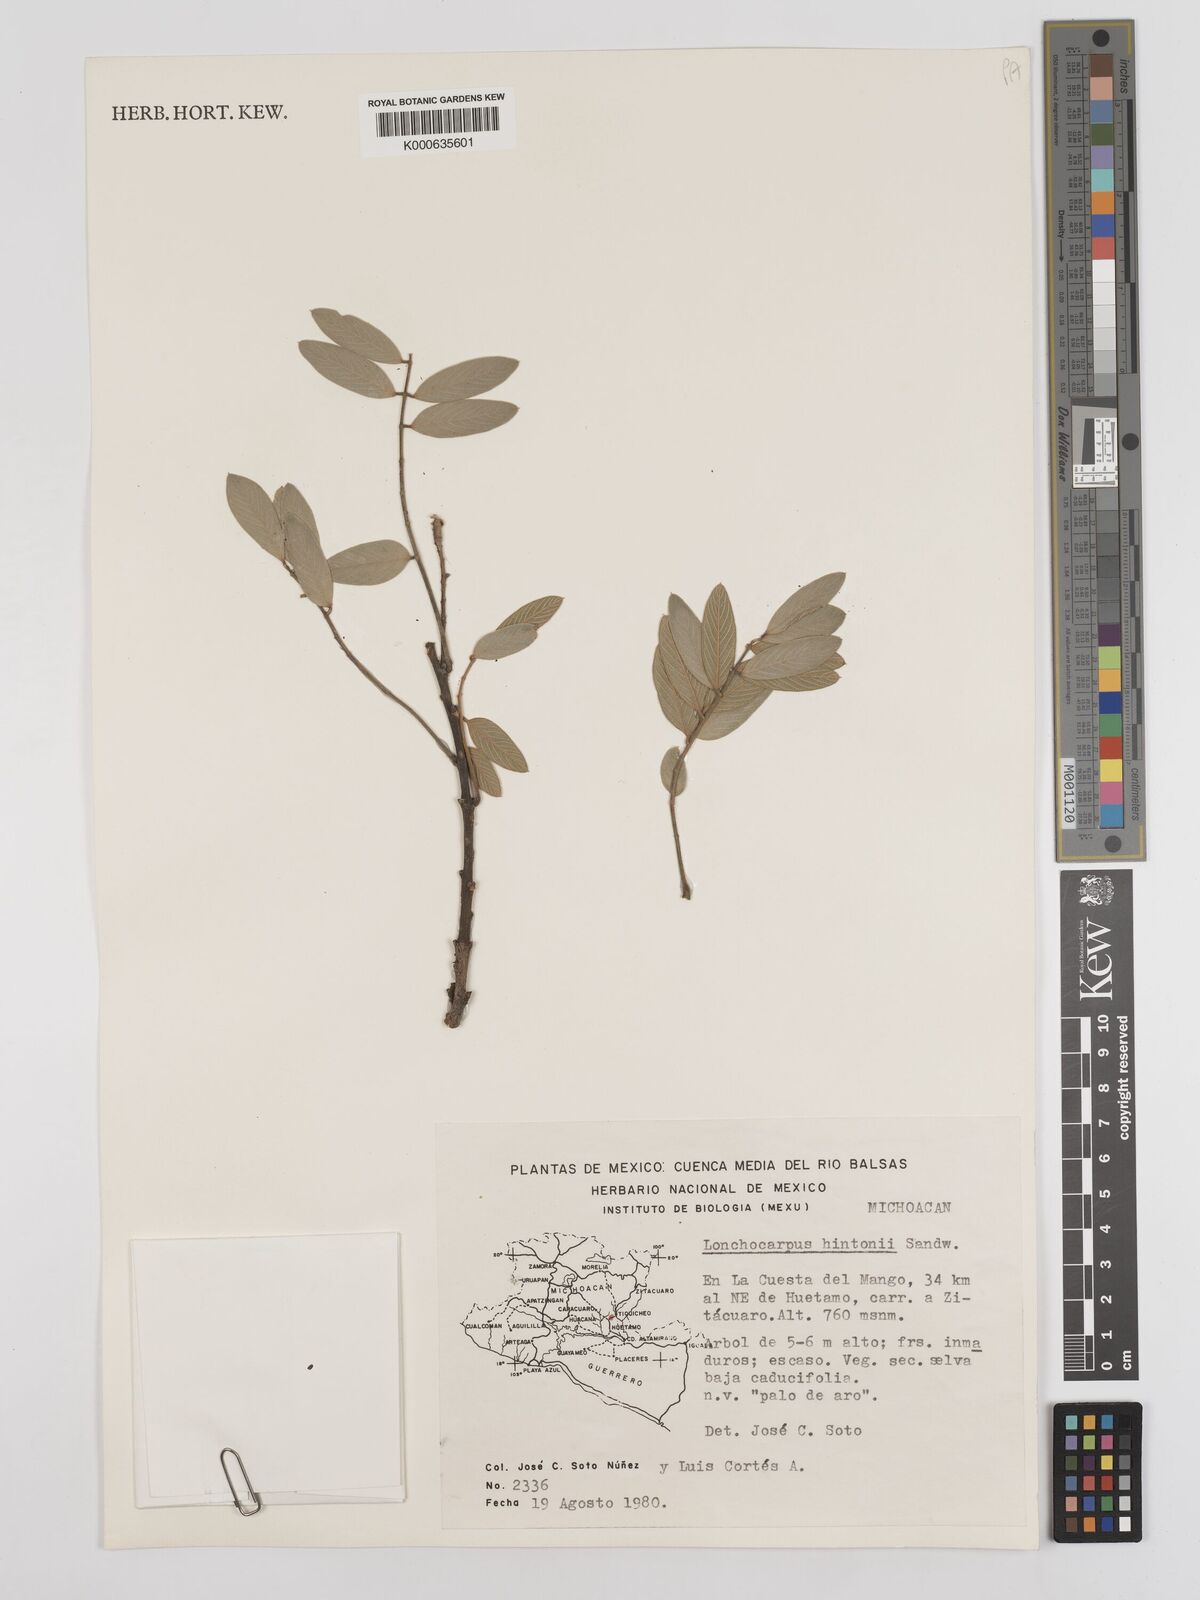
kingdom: Plantae
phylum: Tracheophyta
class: Magnoliopsida
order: Fabales
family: Fabaceae
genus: Lonchocarpus
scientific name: Lonchocarpus hintonii
